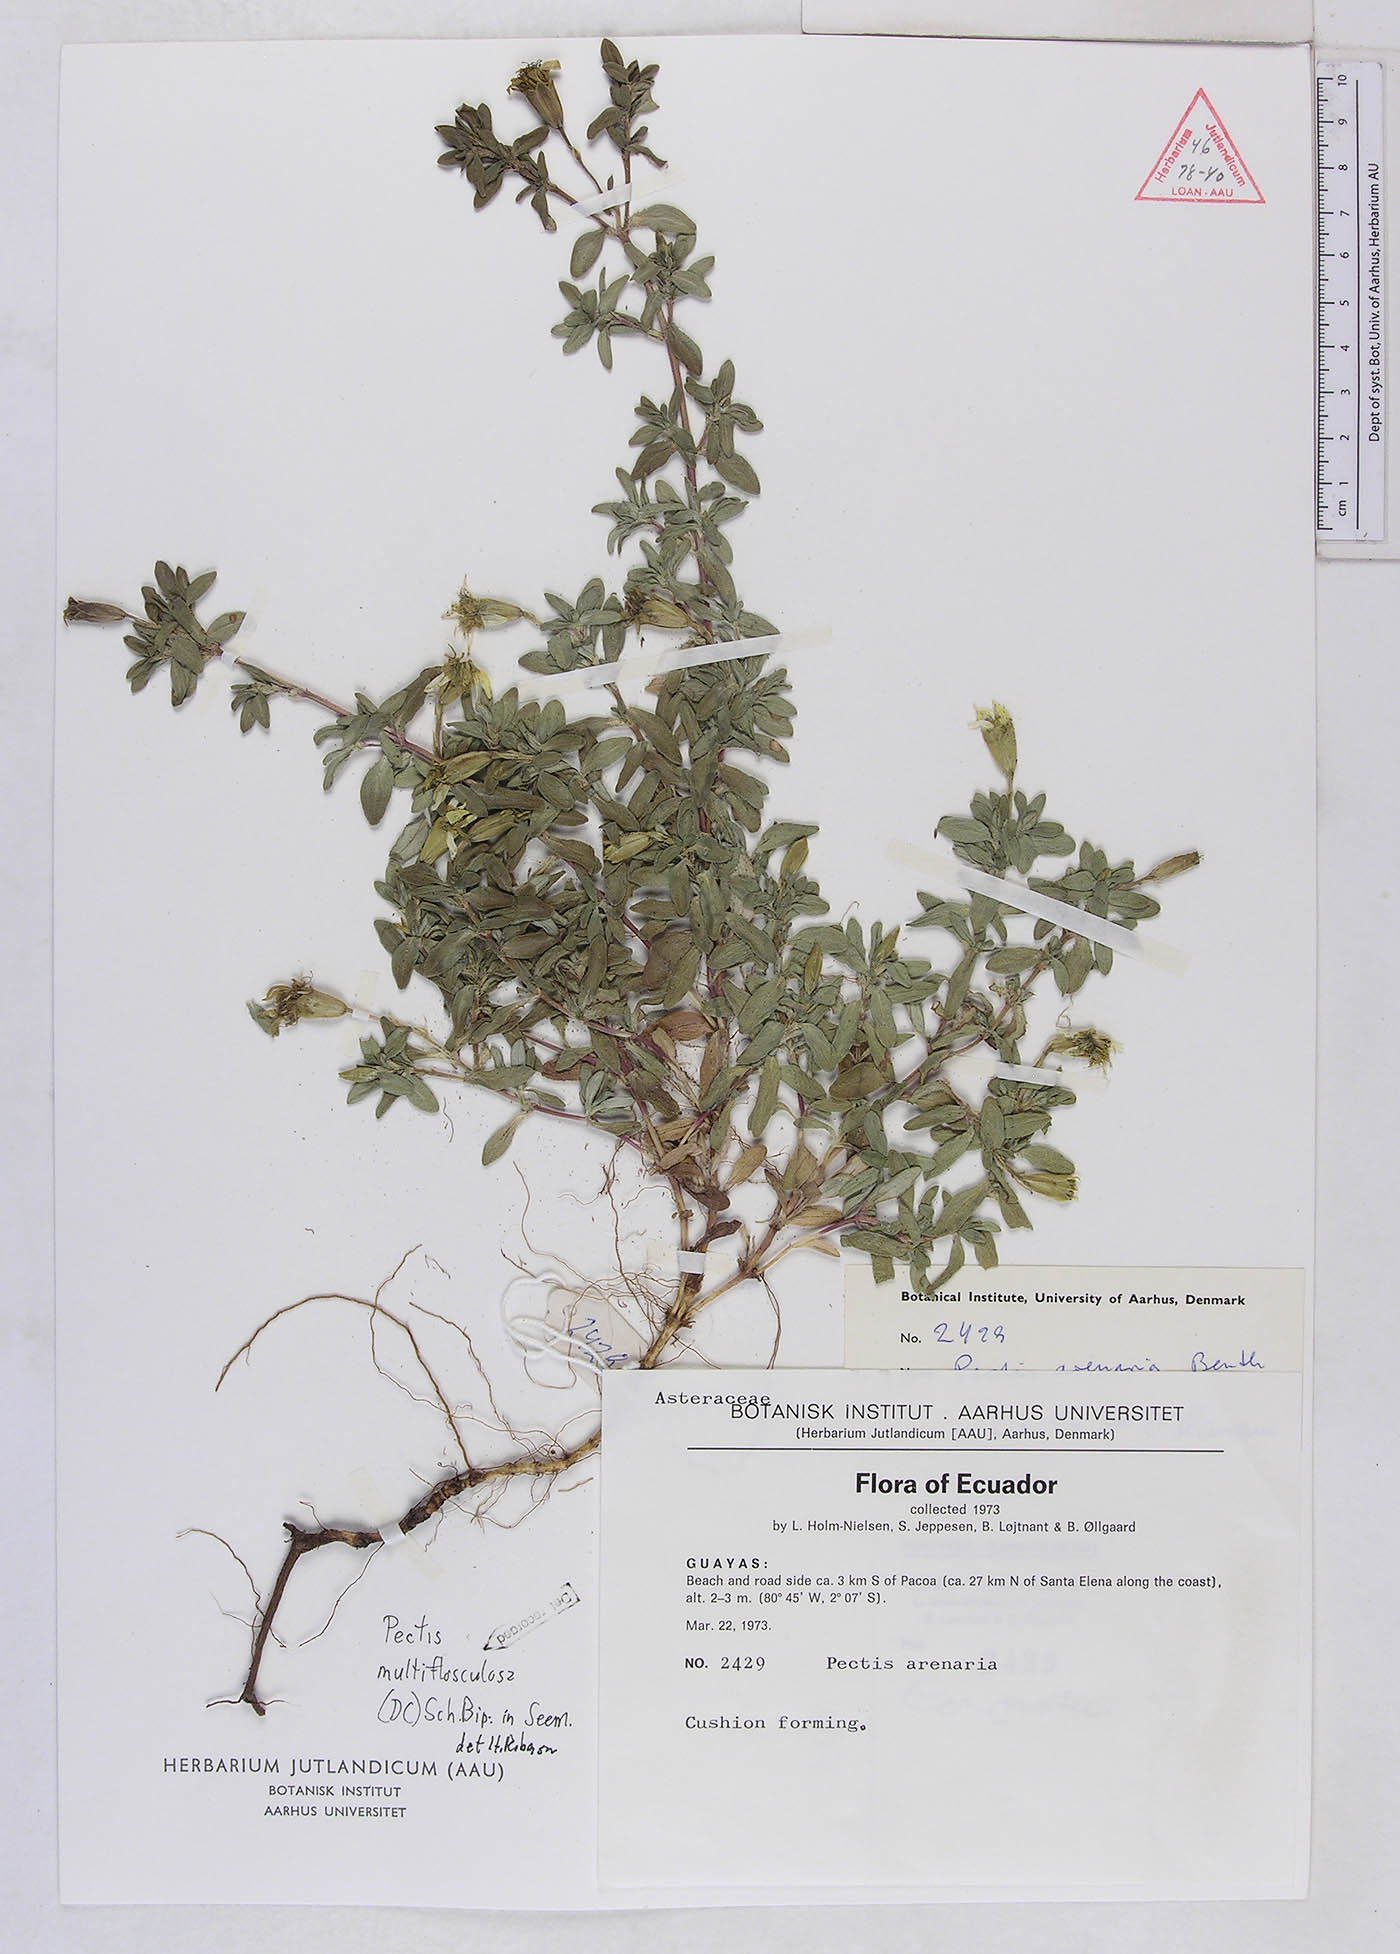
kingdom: Plantae
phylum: Tracheophyta
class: Magnoliopsida
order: Asterales
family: Asteraceae
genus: Pectis
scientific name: Pectis multiflosculosa
